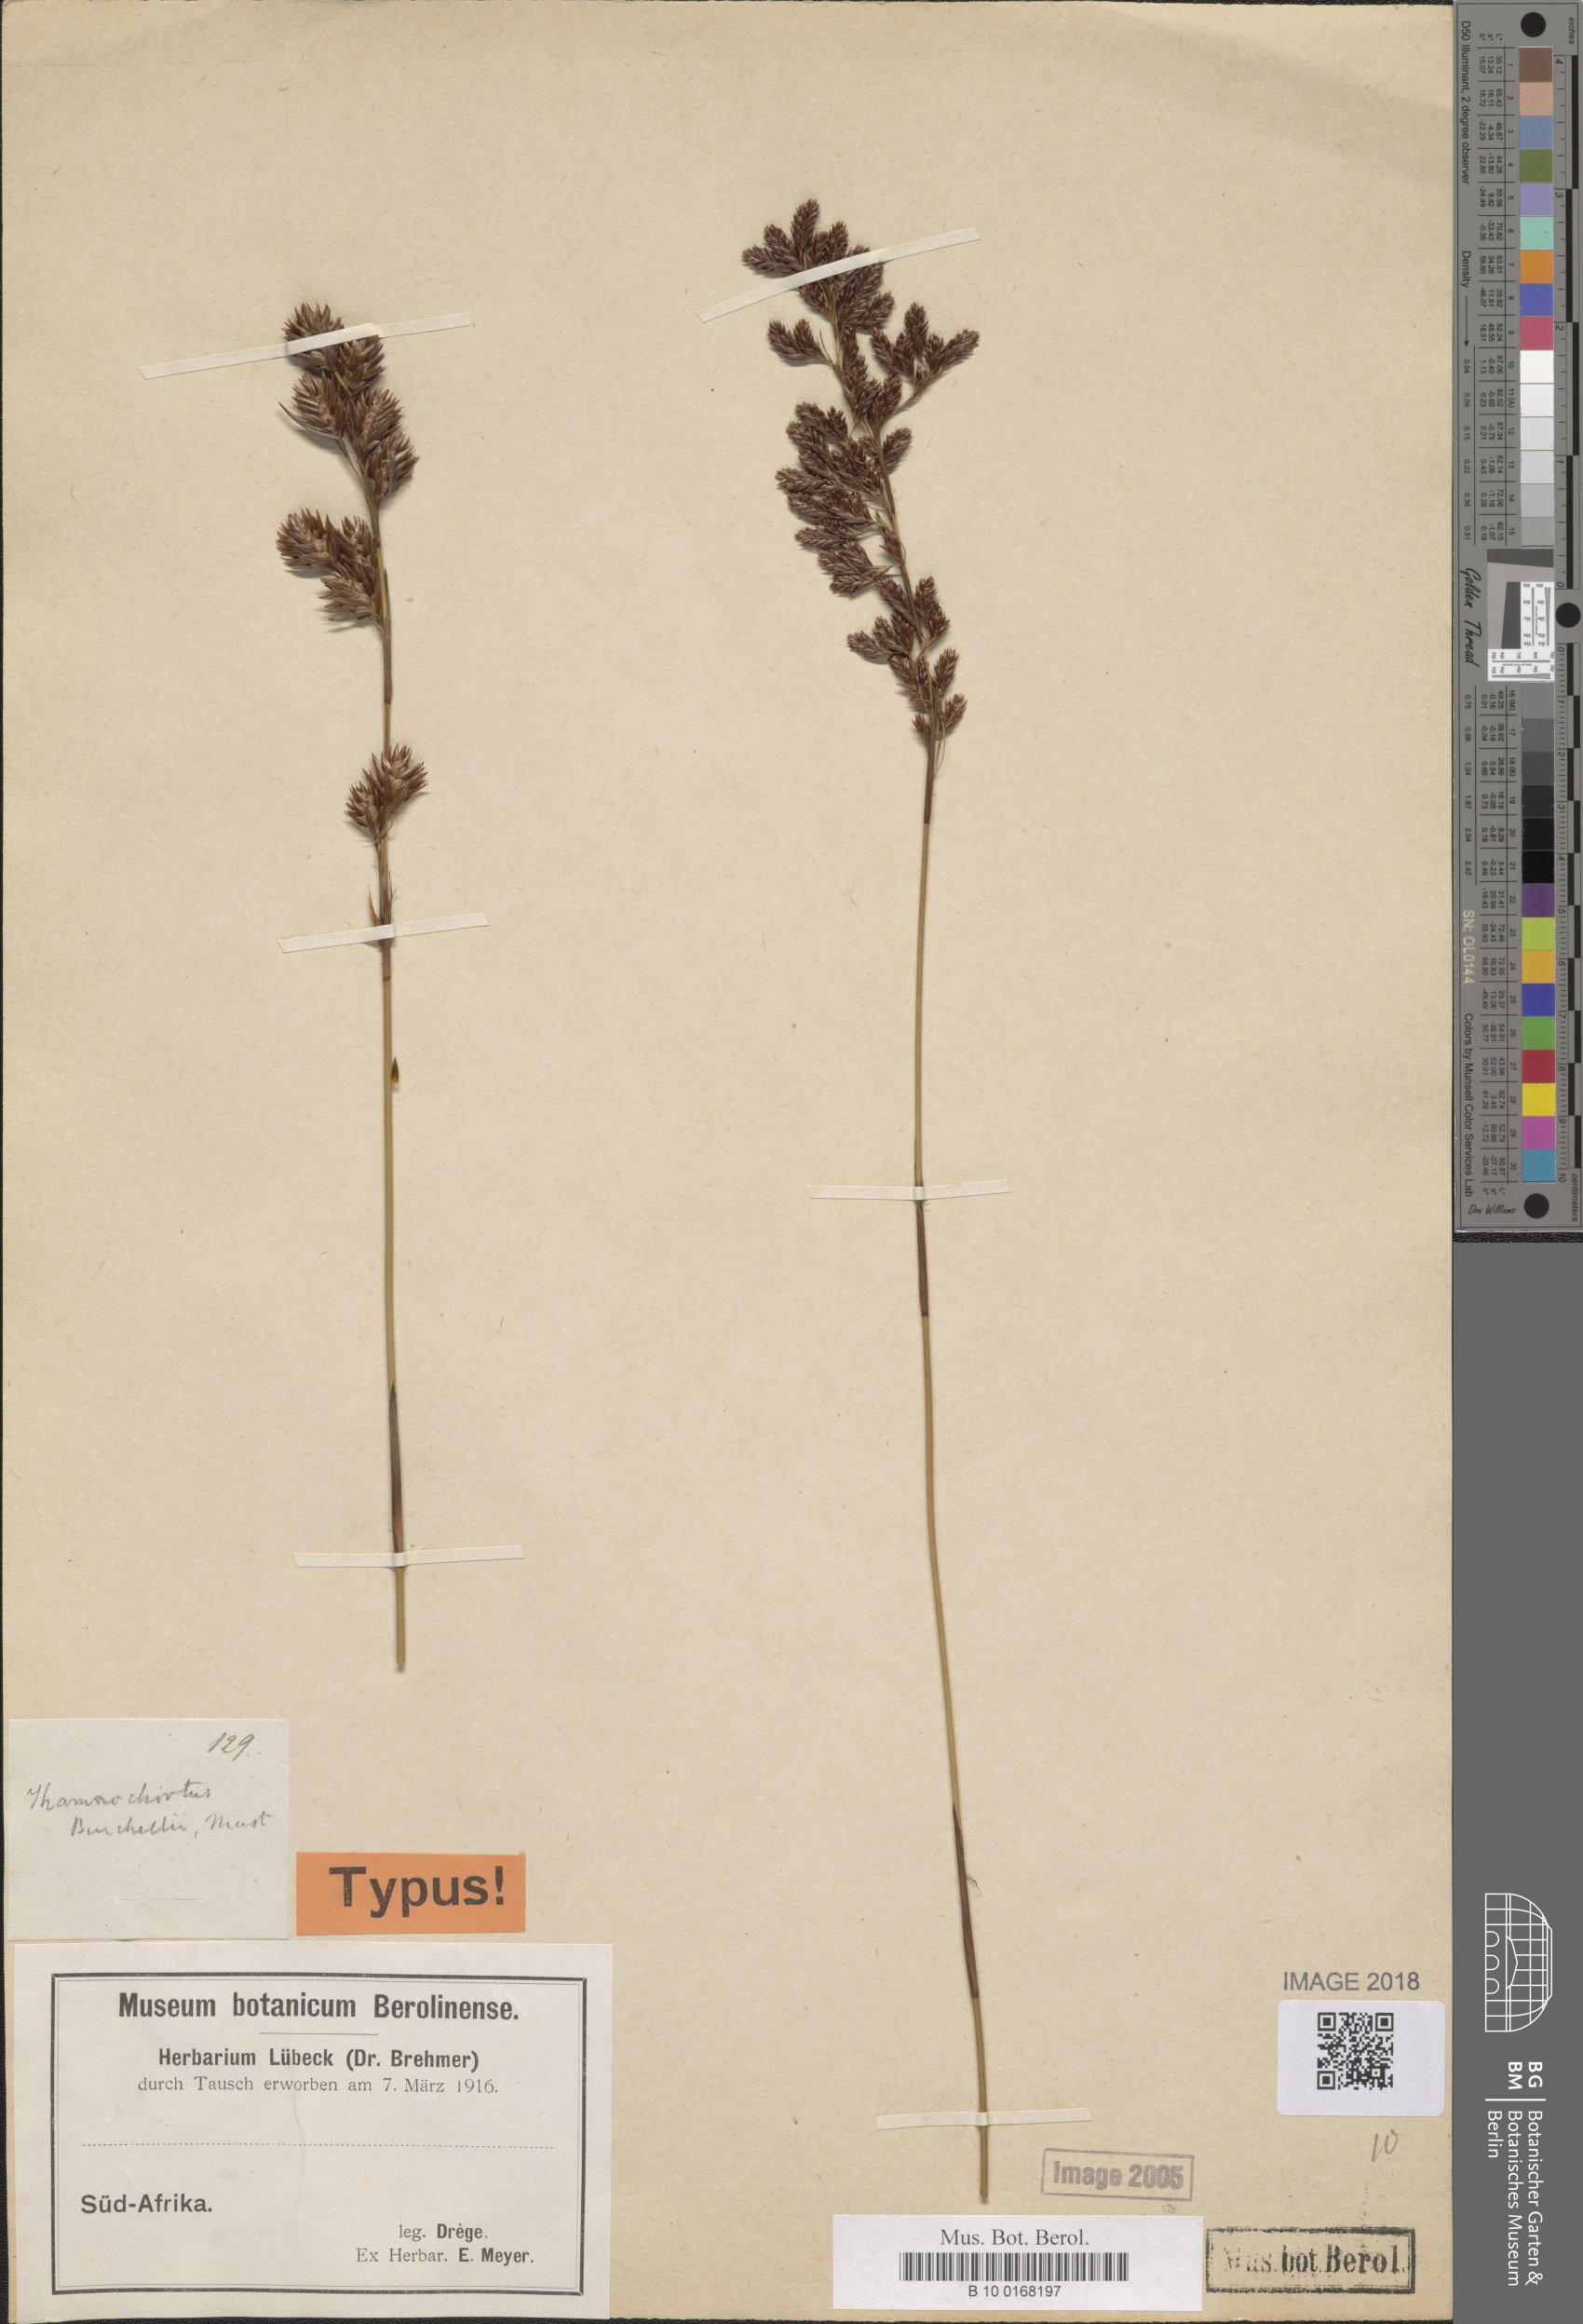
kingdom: Plantae
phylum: Tracheophyta
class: Liliopsida
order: Poales
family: Restionaceae
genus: Thamnochortus
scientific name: Thamnochortus erectus
